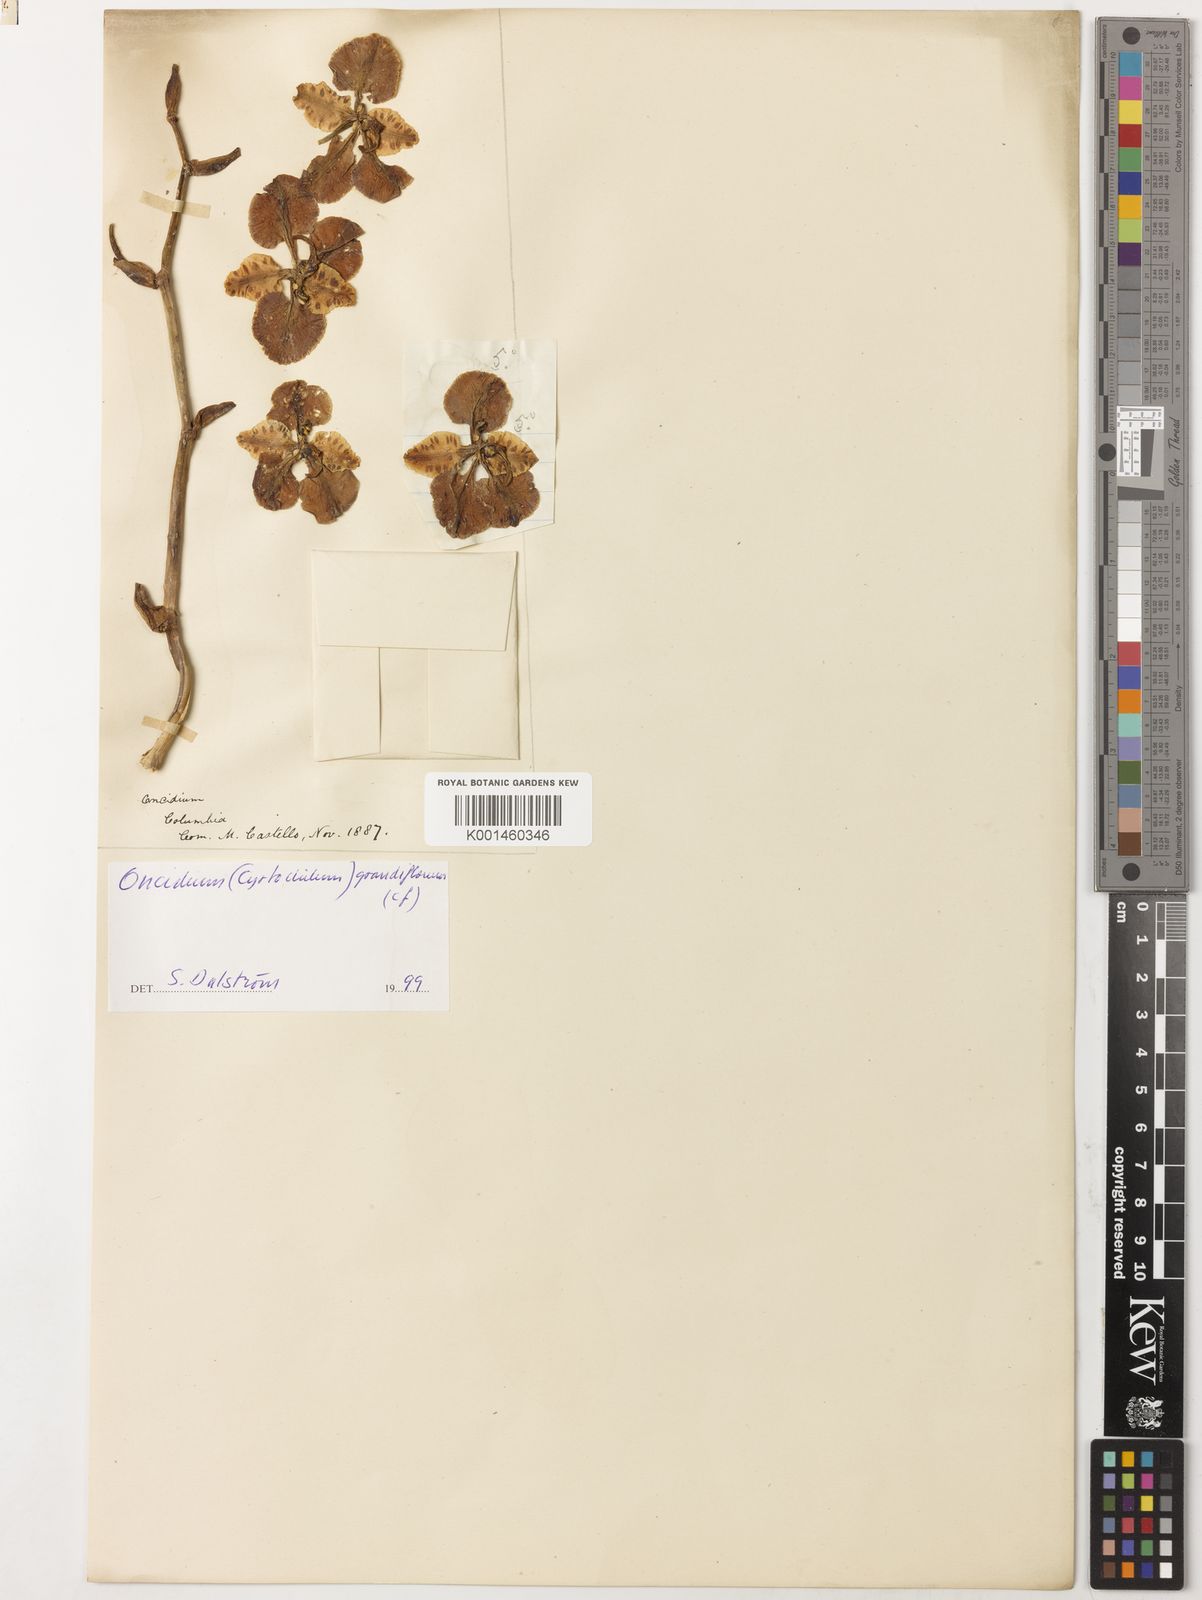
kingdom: Plantae
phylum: Tracheophyta
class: Liliopsida
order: Asparagales
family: Orchidaceae
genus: Cyrtochilum
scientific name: Cyrtochilum grandiflorum
